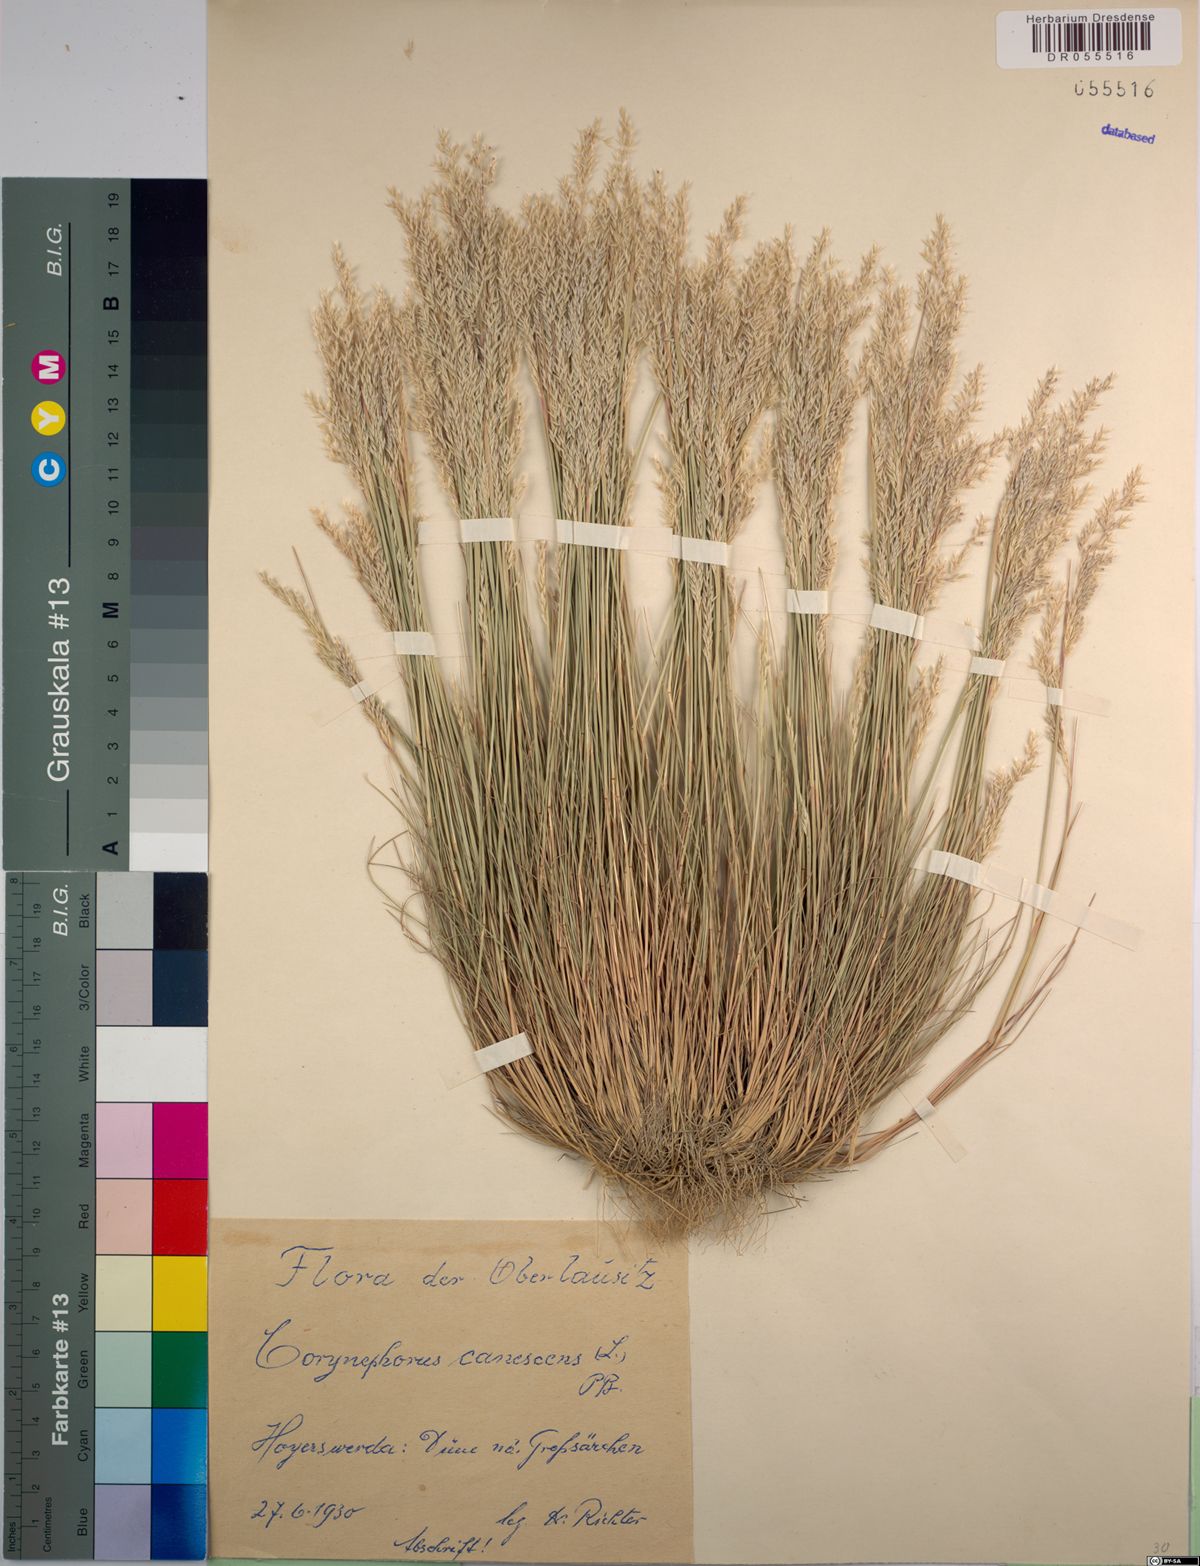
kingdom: Plantae
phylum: Tracheophyta
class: Liliopsida
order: Poales
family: Poaceae
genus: Corynephorus
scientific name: Corynephorus canescens
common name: Grey hair-grass
